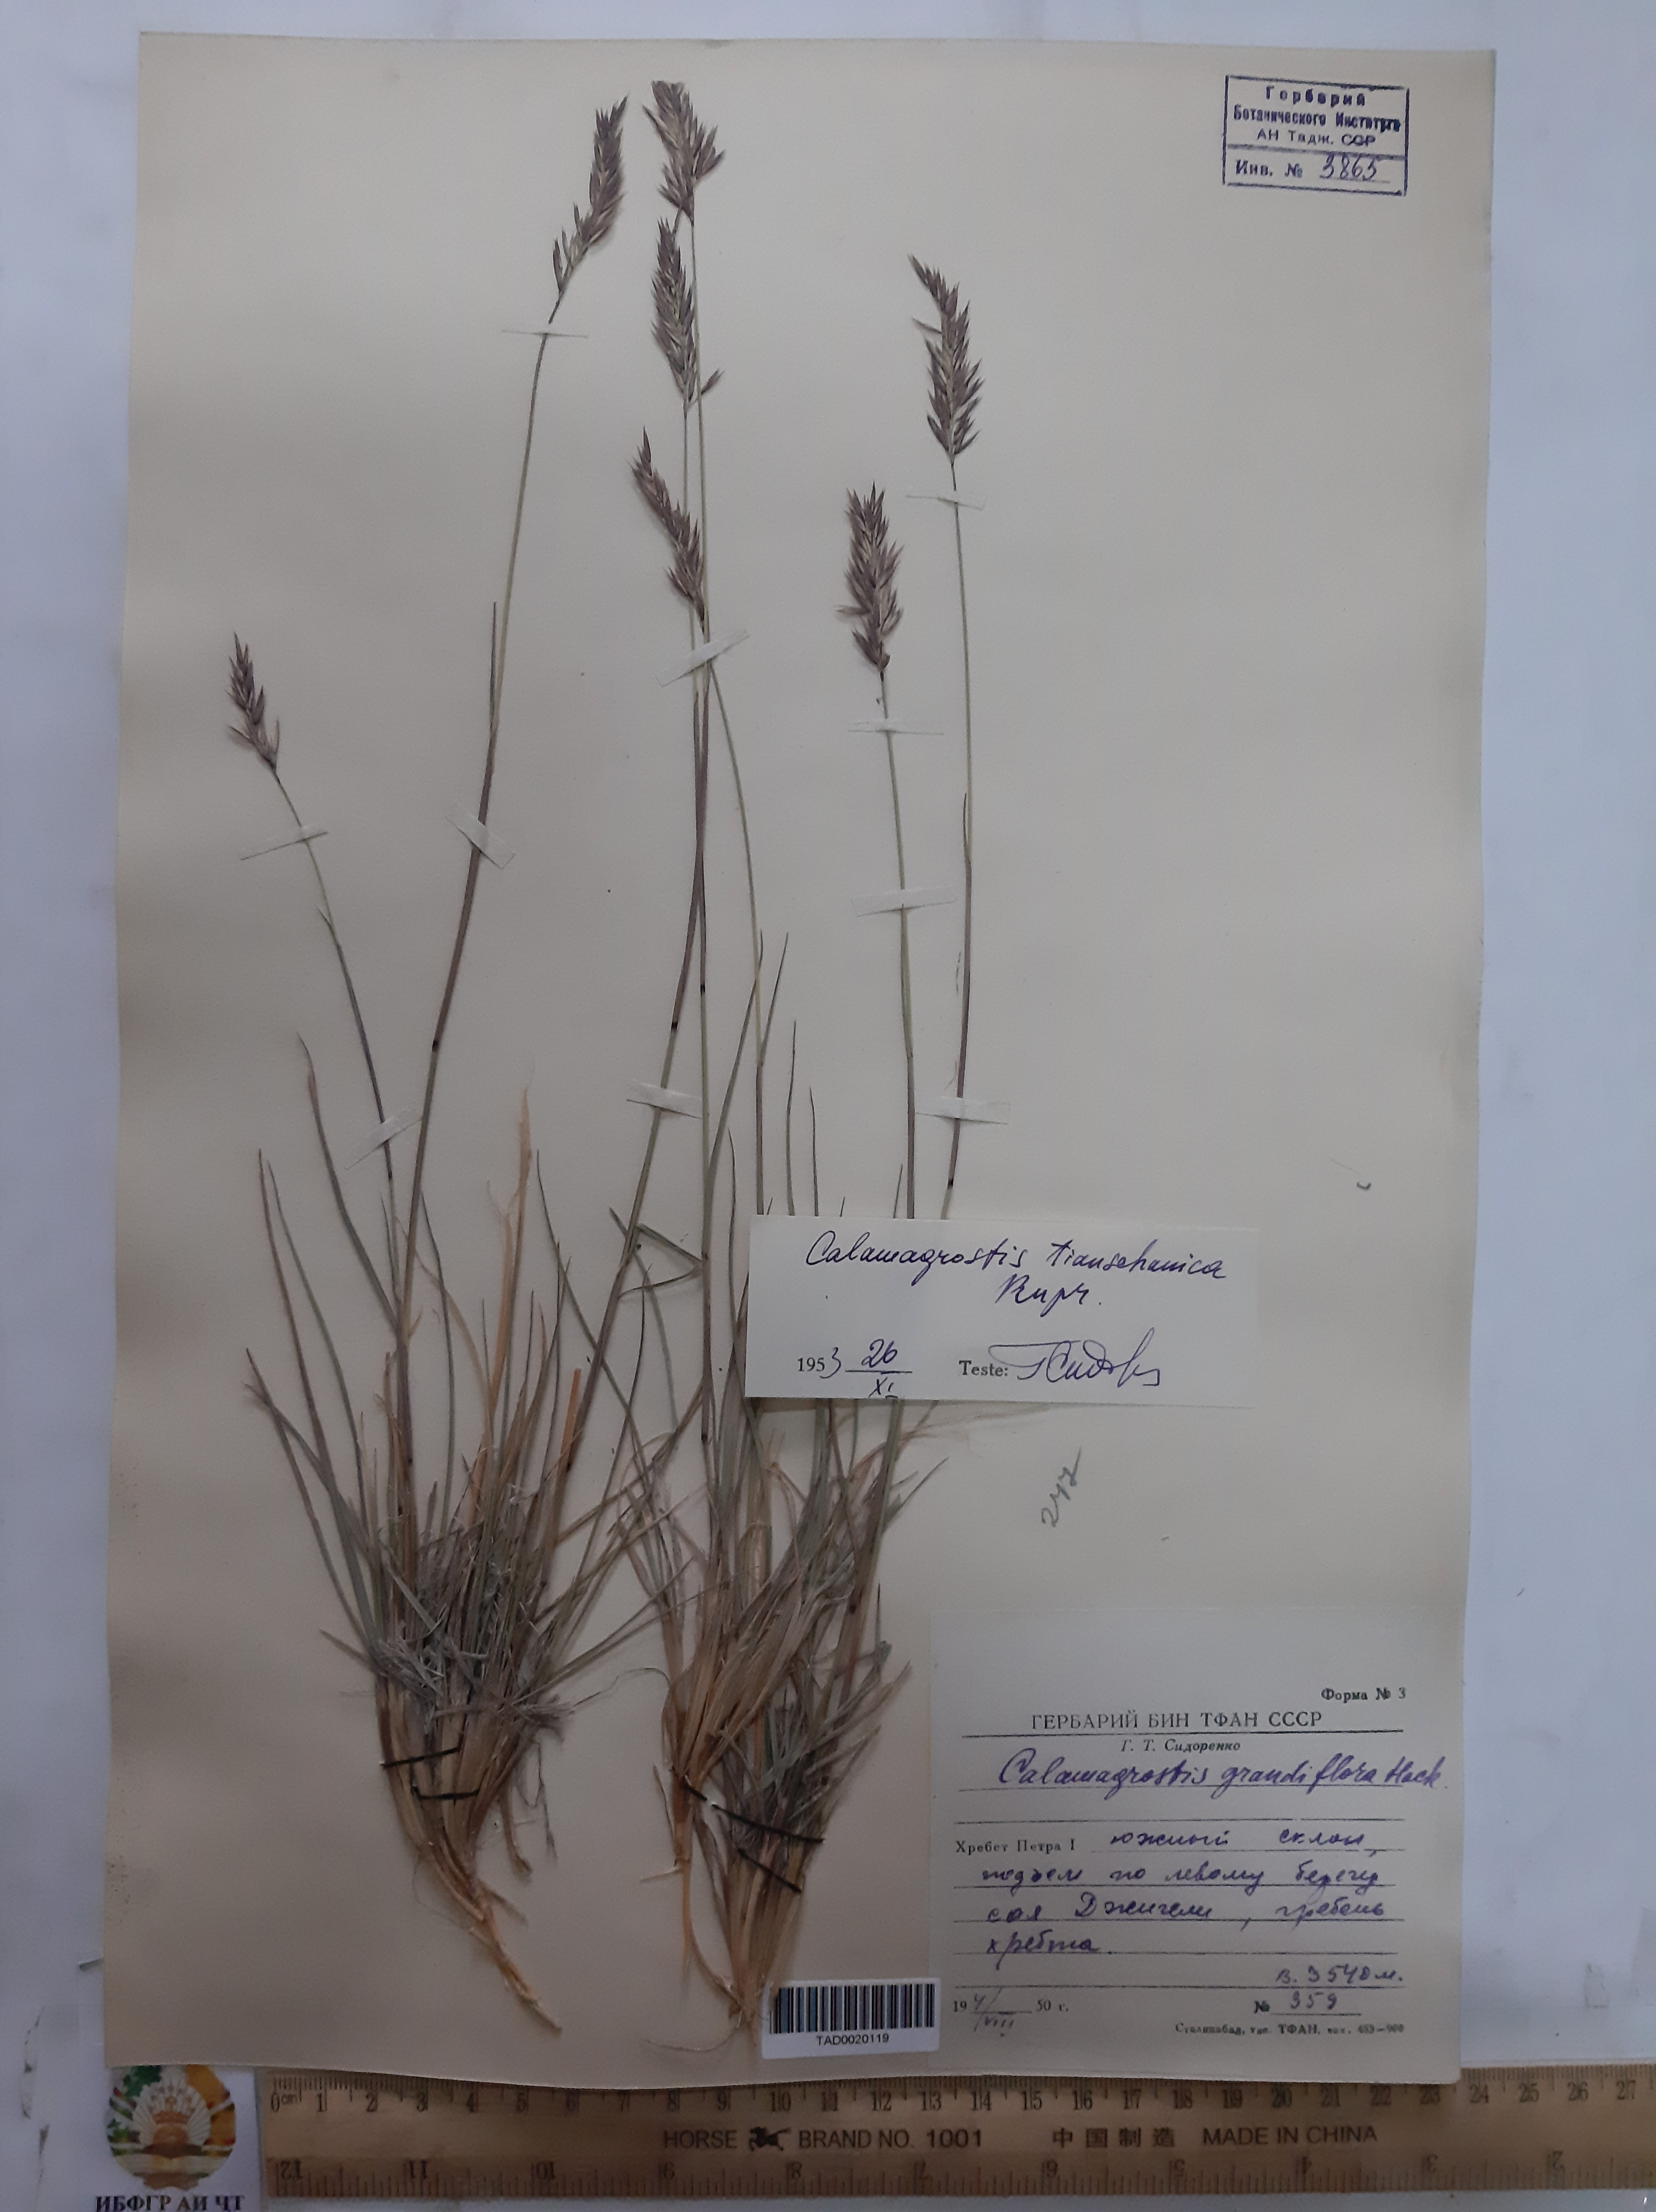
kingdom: Plantae
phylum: Tracheophyta
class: Liliopsida
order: Poales
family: Poaceae
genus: Calamagrostis
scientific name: Calamagrostis holciformis
